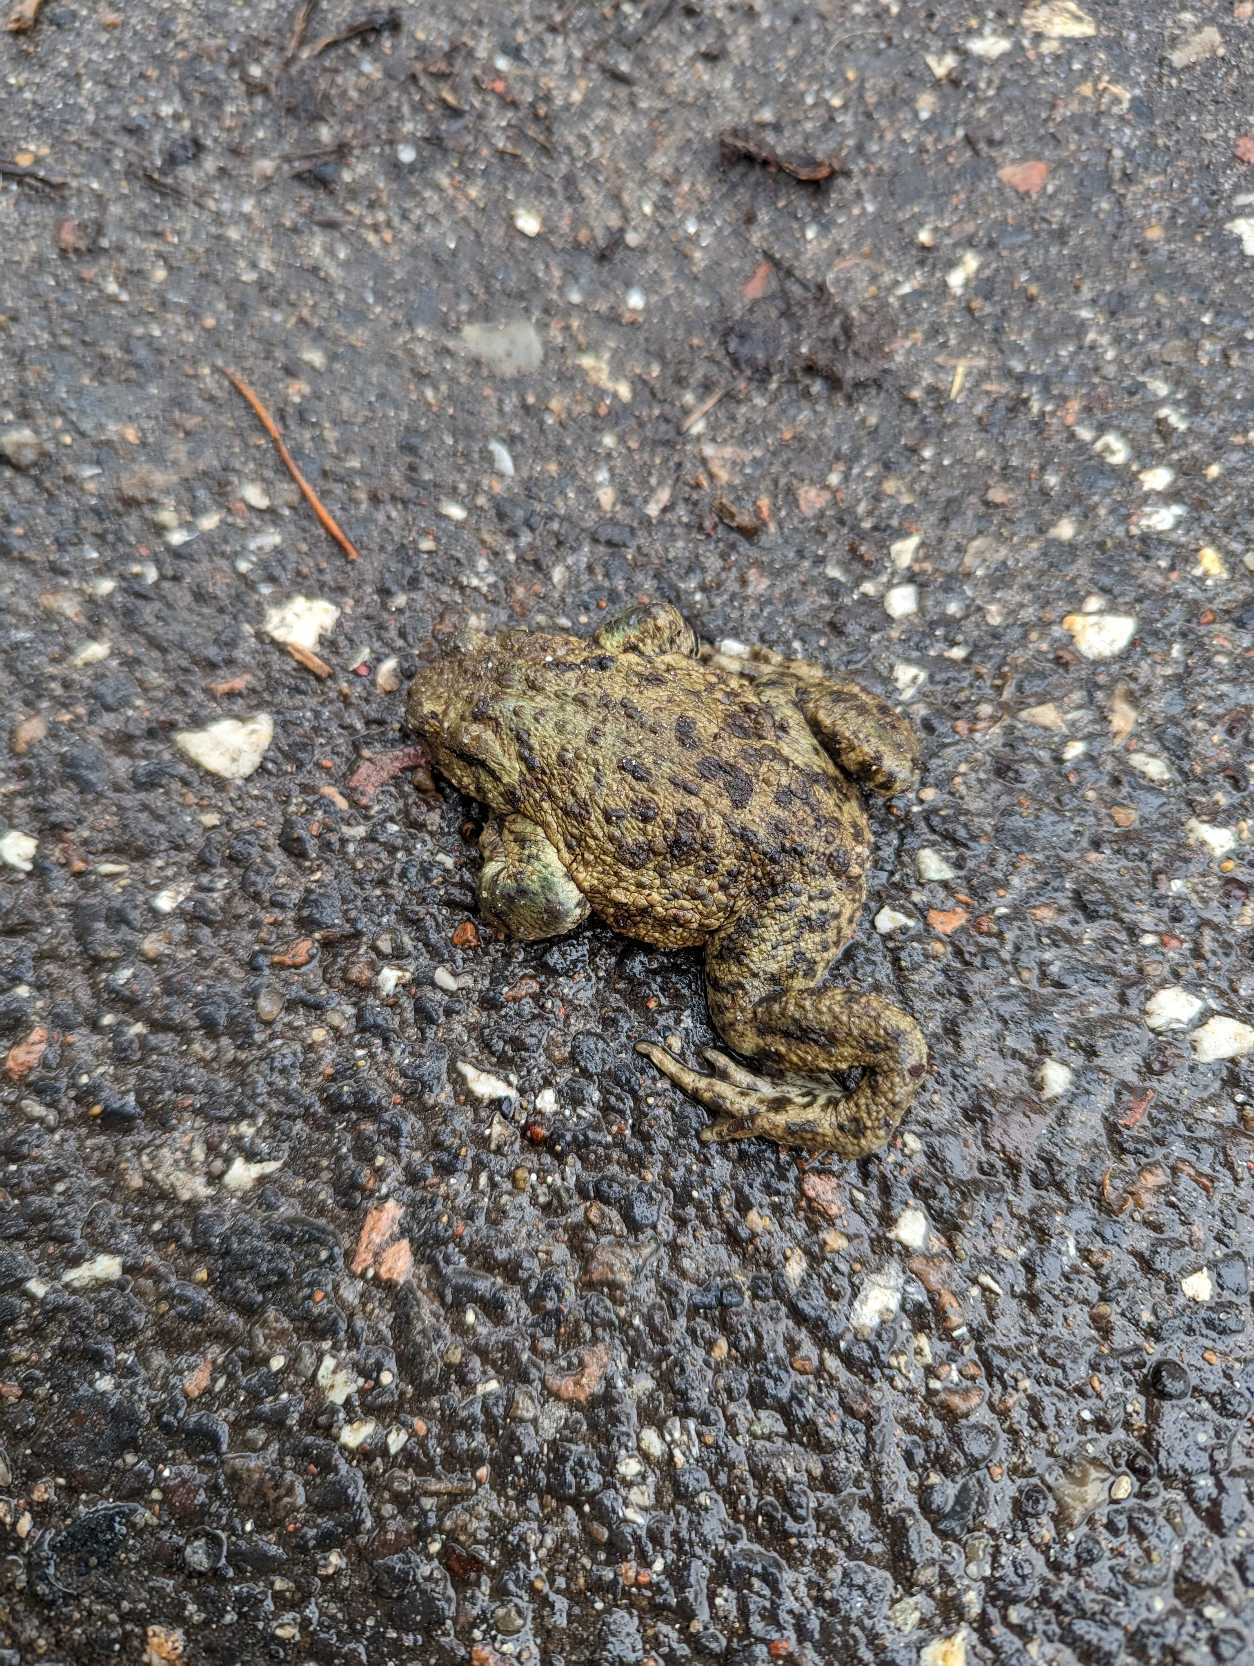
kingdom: Animalia
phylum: Chordata
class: Amphibia
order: Anura
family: Bufonidae
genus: Bufo
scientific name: Bufo bufo
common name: Skrubtudse
